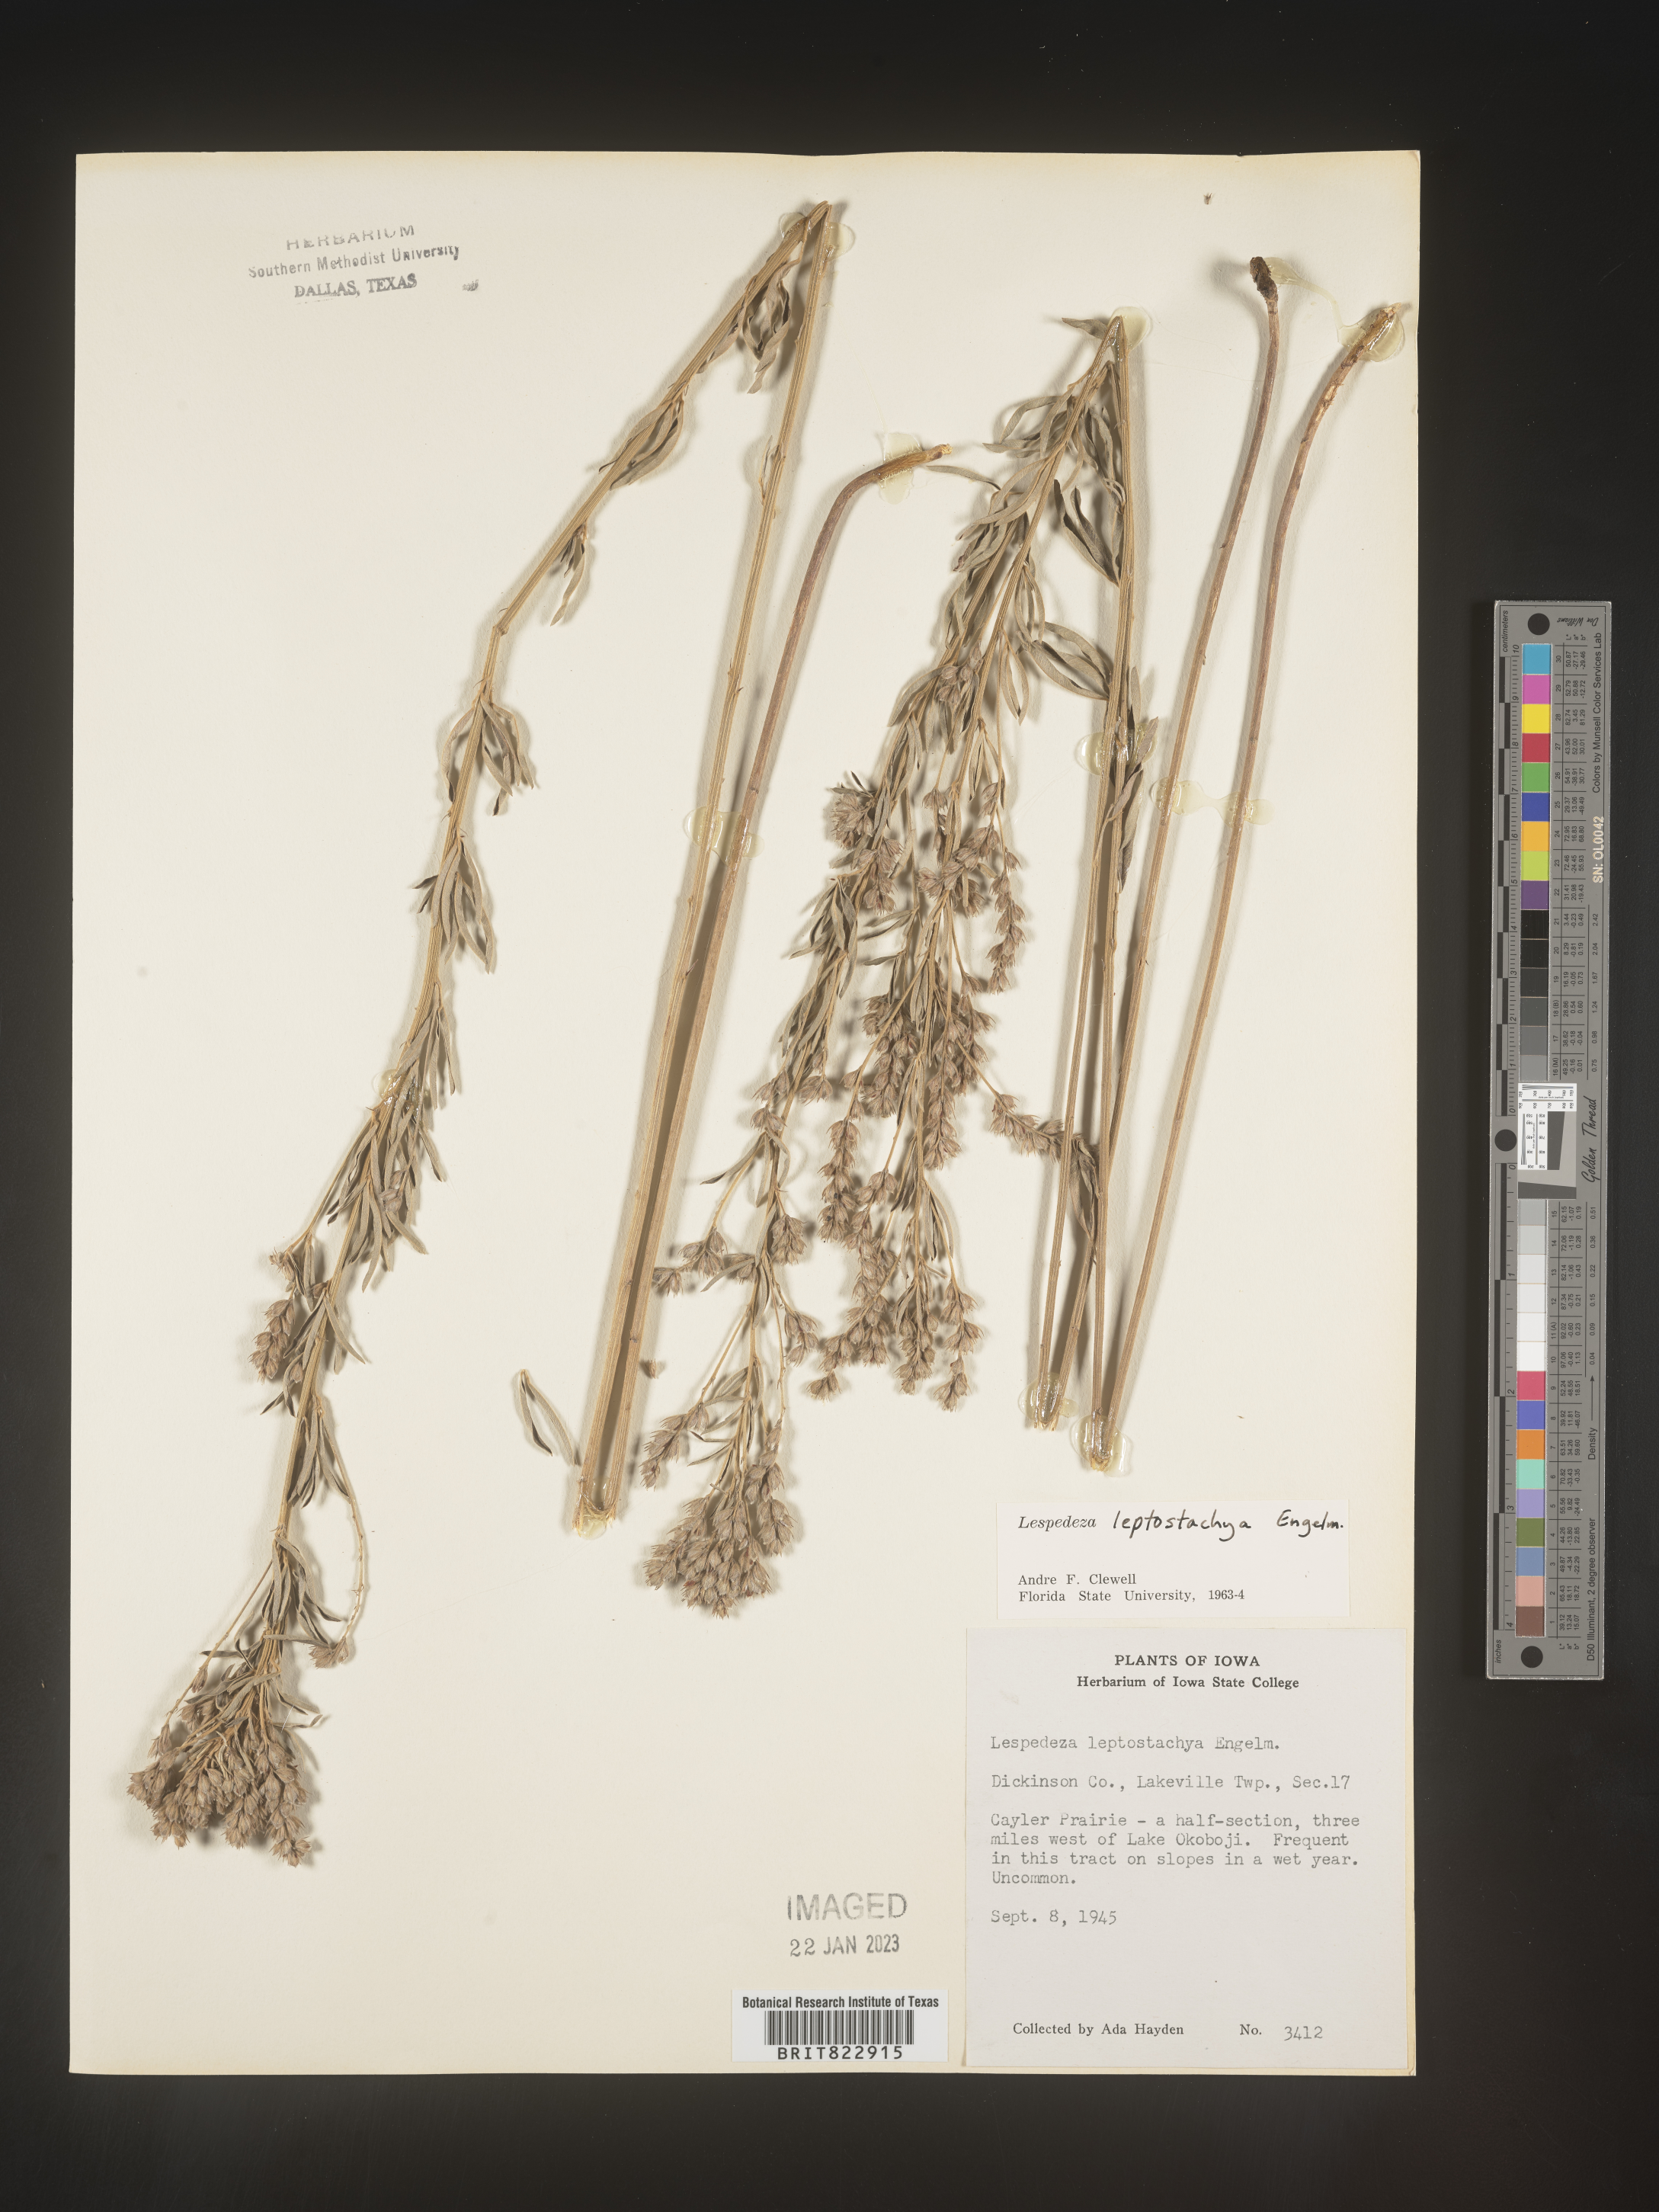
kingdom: Plantae
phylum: Tracheophyta
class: Magnoliopsida
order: Fabales
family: Fabaceae
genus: Lespedeza
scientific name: Lespedeza
